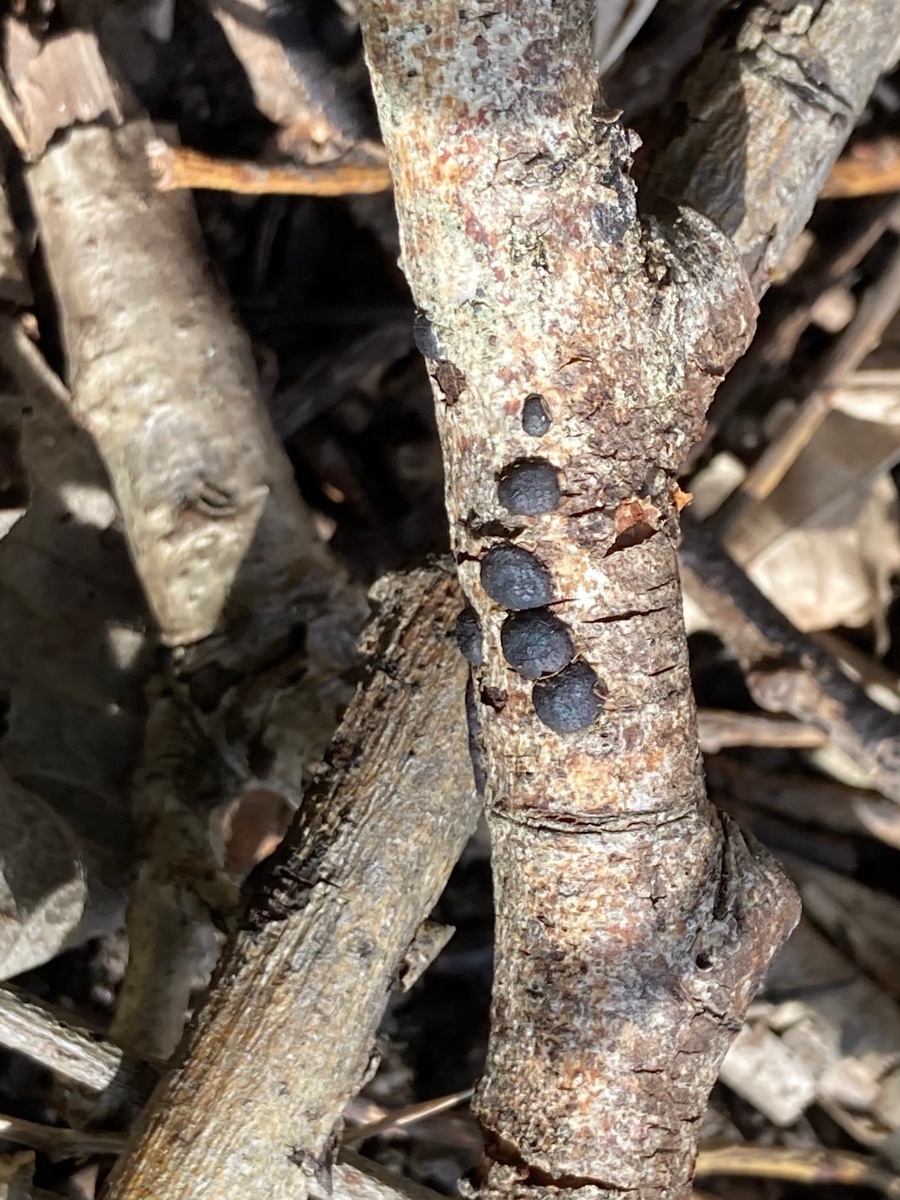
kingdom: Fungi
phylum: Ascomycota
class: Sordariomycetes
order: Xylariales
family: Diatrypaceae
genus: Diatrype
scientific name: Diatrype bullata
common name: pile-kulskorpe
